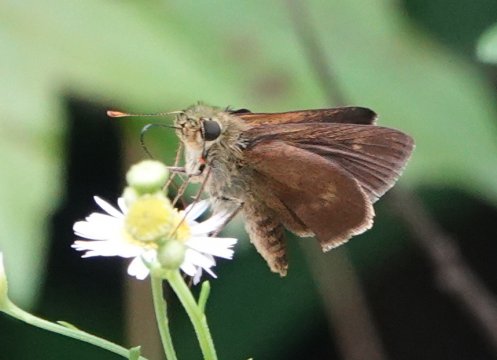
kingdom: Animalia
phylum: Arthropoda
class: Insecta
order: Lepidoptera
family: Hesperiidae
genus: Polites
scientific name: Polites egeremet
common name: Northern Broken-Dash
